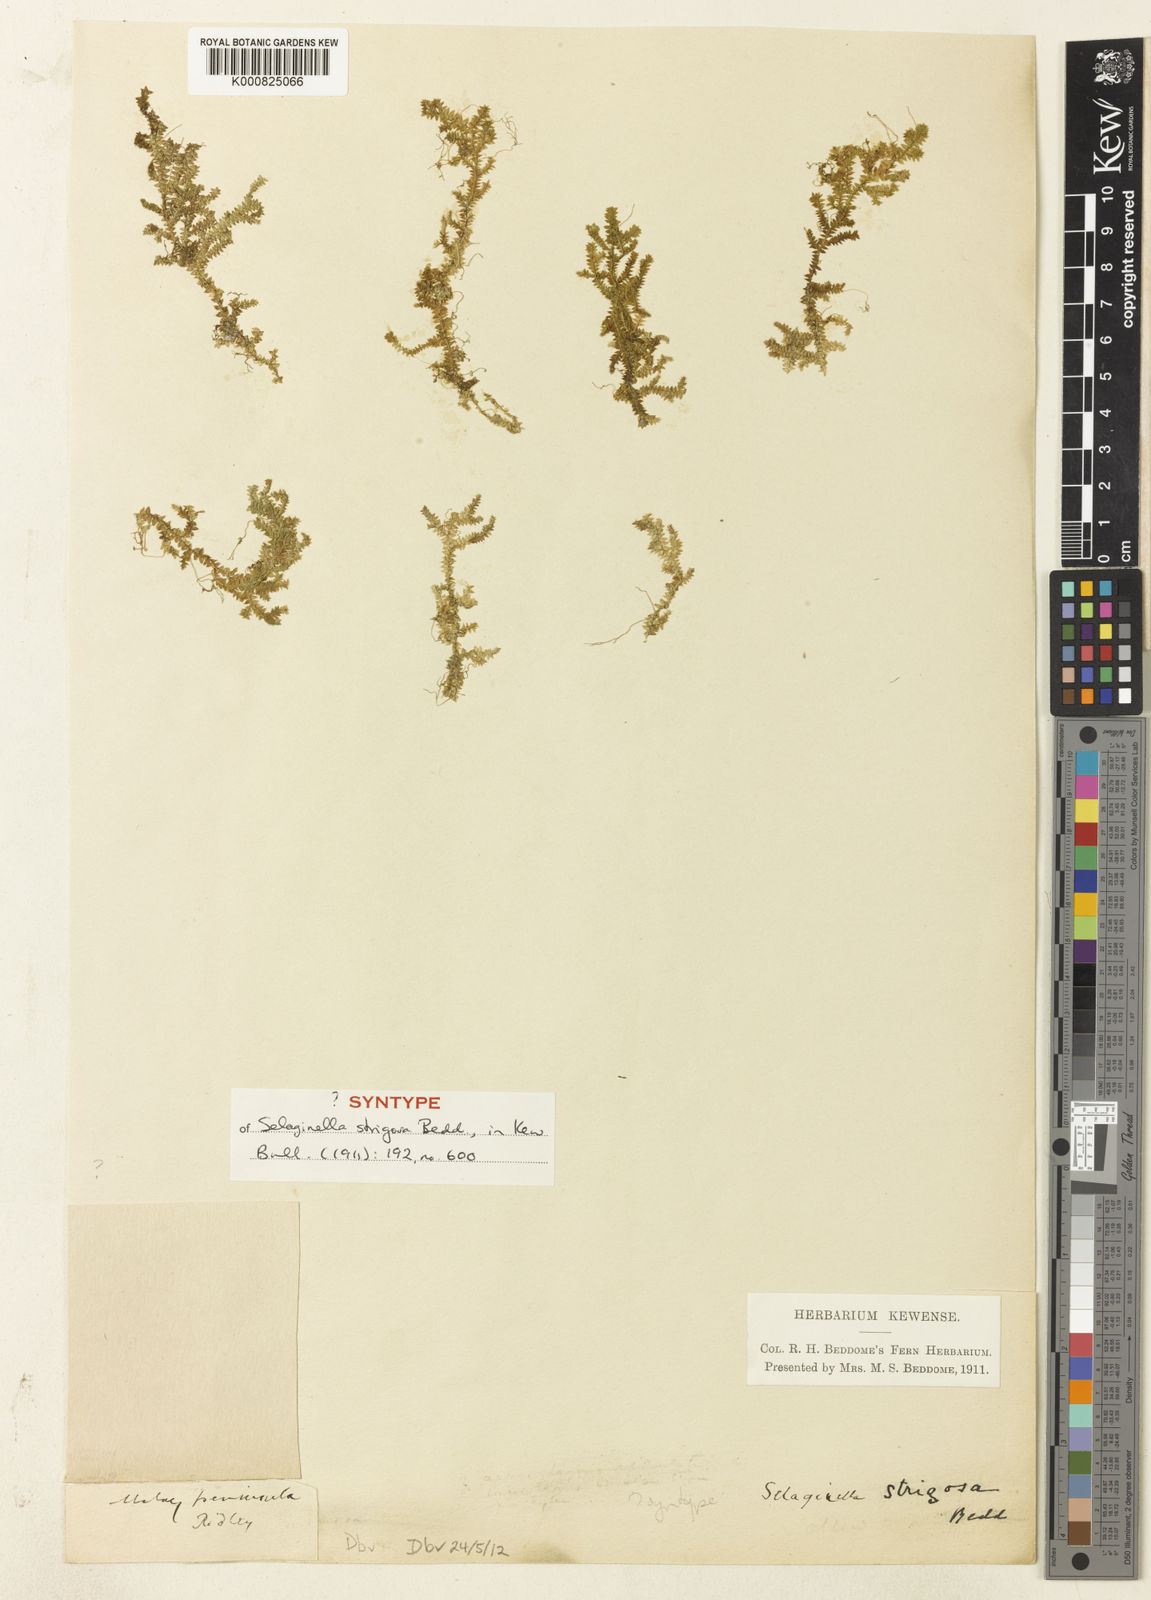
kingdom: Plantae
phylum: Tracheophyta
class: Lycopodiopsida
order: Selaginellales
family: Selaginellaceae
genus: Selaginella
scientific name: Selaginella strigosa
